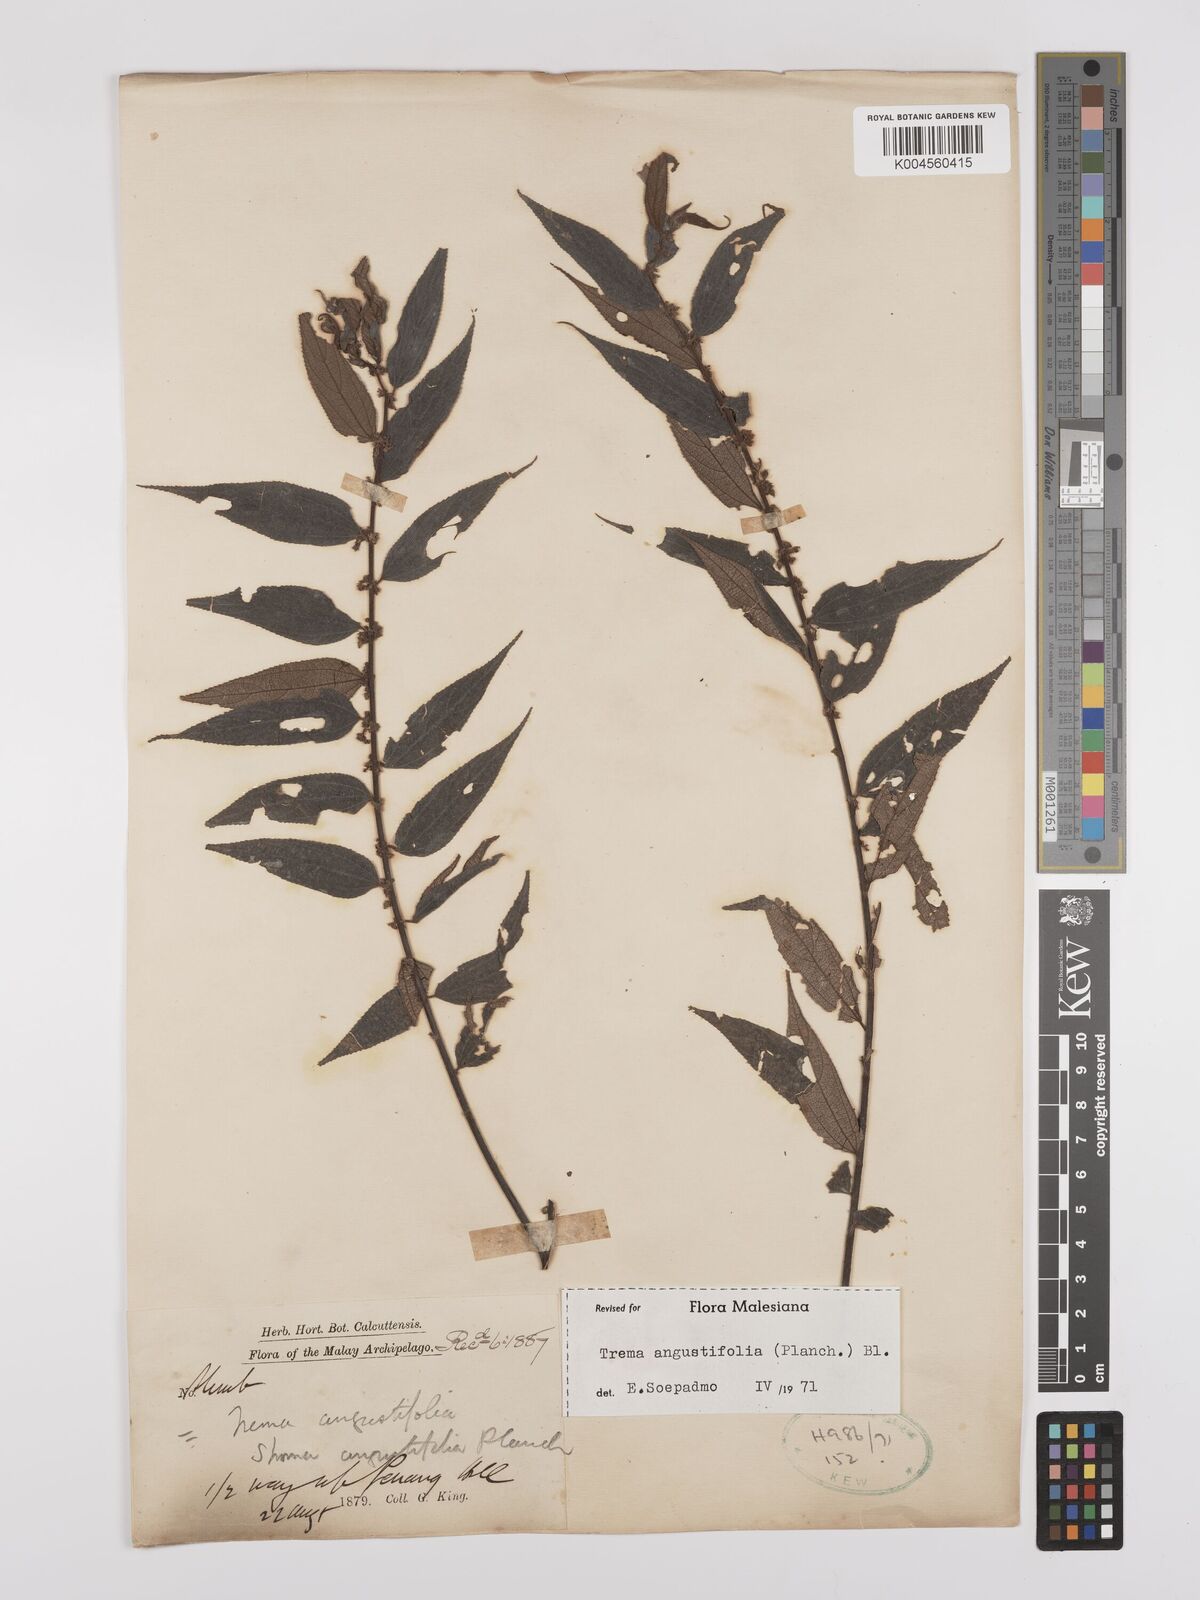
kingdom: Plantae
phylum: Tracheophyta
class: Magnoliopsida
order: Rosales
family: Cannabaceae
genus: Trema
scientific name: Trema angustifolium
